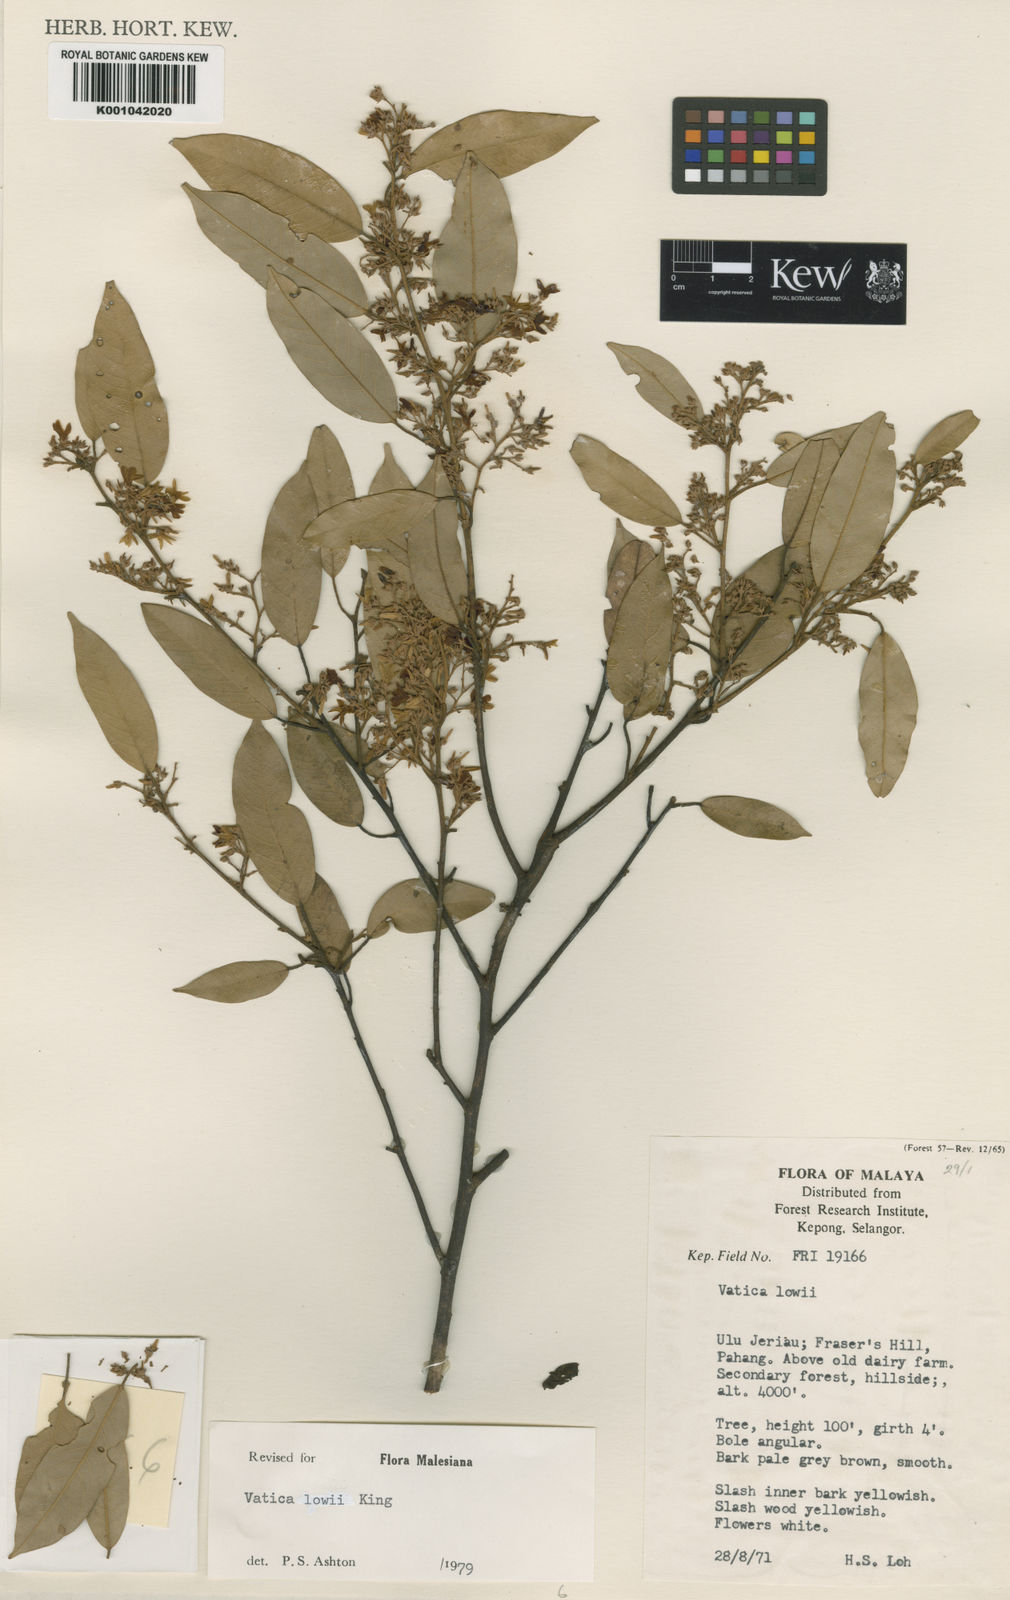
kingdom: Plantae
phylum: Tracheophyta
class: Magnoliopsida
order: Malvales
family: Dipterocarpaceae
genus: Vatica
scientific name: Vatica lowii
